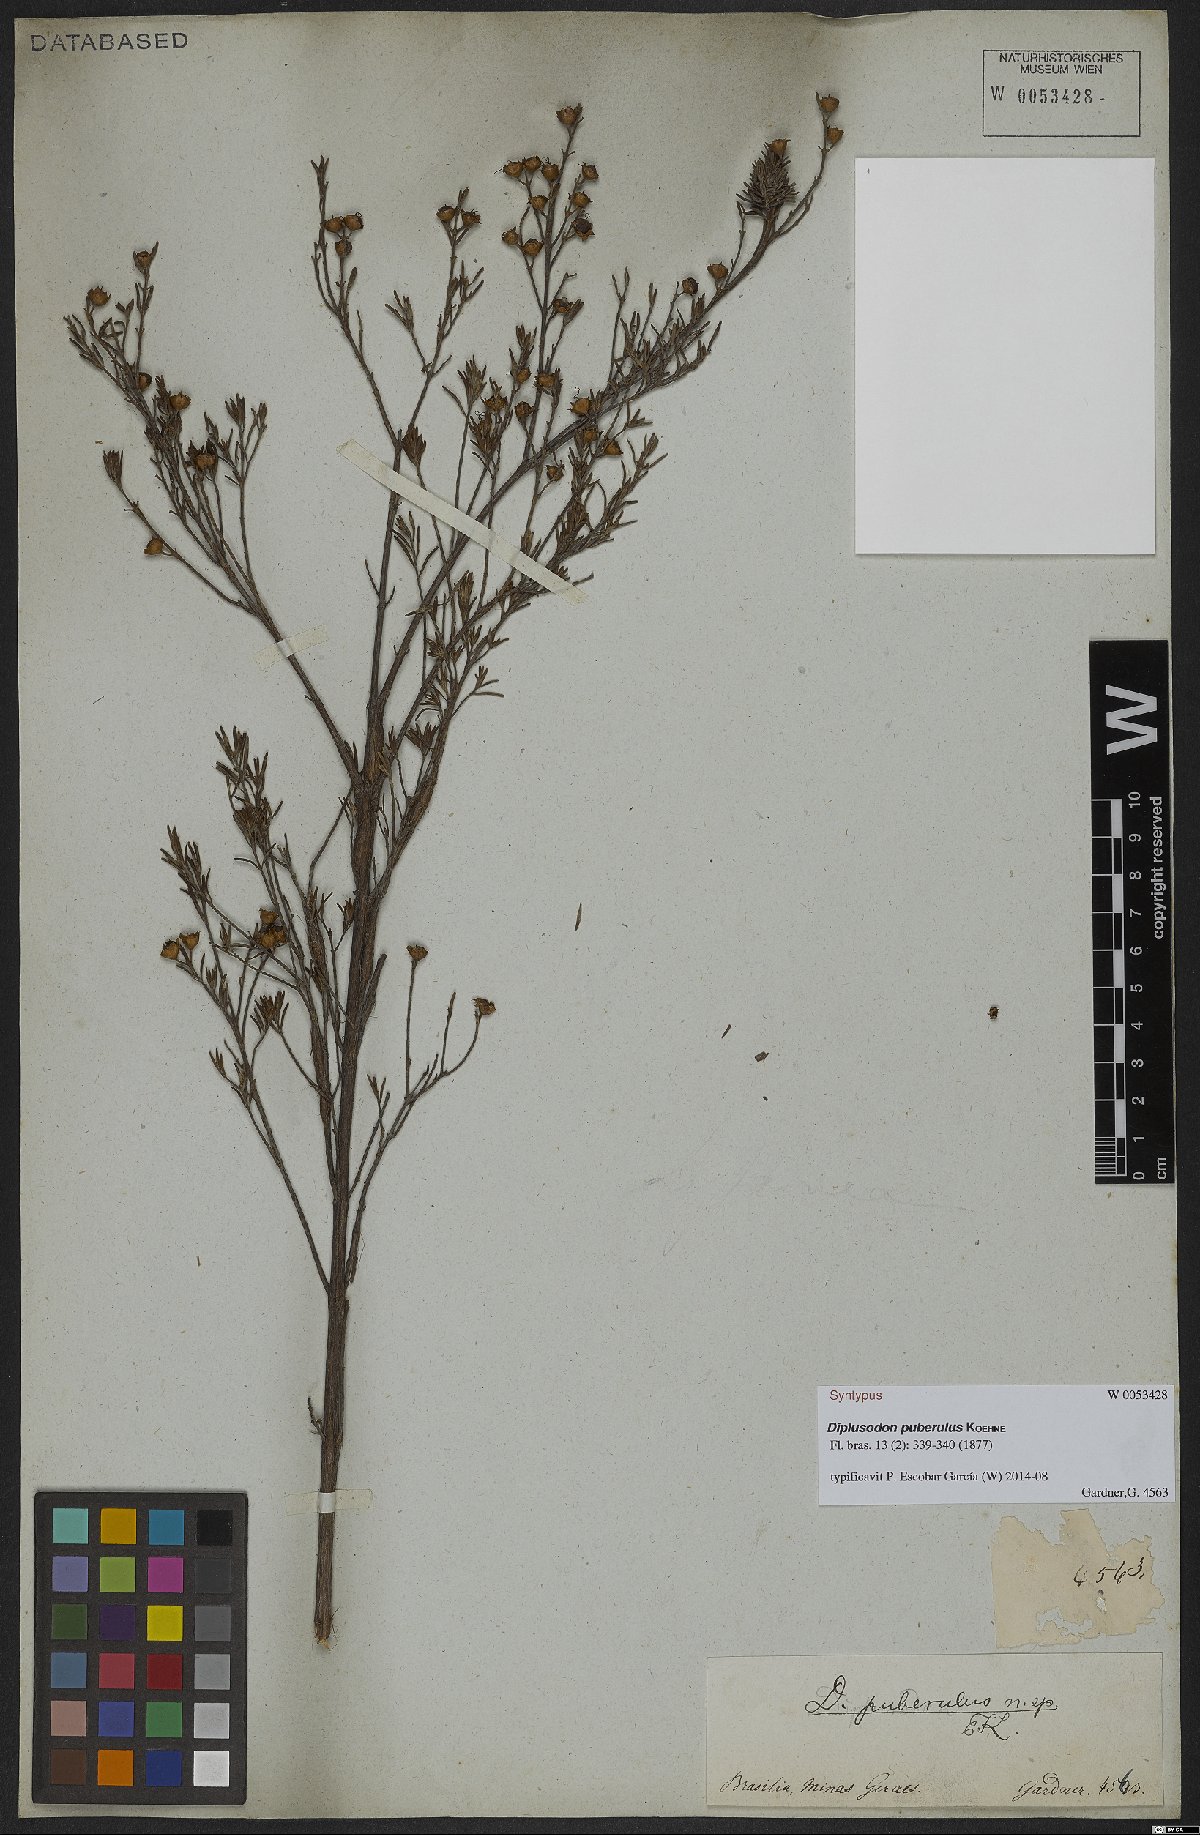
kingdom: Plantae
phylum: Tracheophyta
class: Magnoliopsida
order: Myrtales
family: Lythraceae
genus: Diplusodon
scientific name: Diplusodon puberulus
